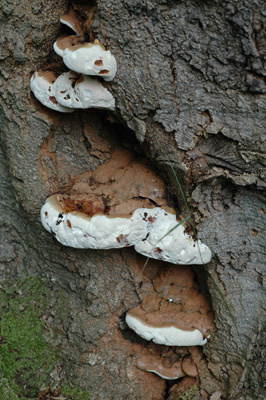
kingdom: Fungi
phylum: Basidiomycota
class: Agaricomycetes
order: Polyporales
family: Polyporaceae
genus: Ganoderma
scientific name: Ganoderma pfeifferi
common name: kobberrød lakporesvamp
